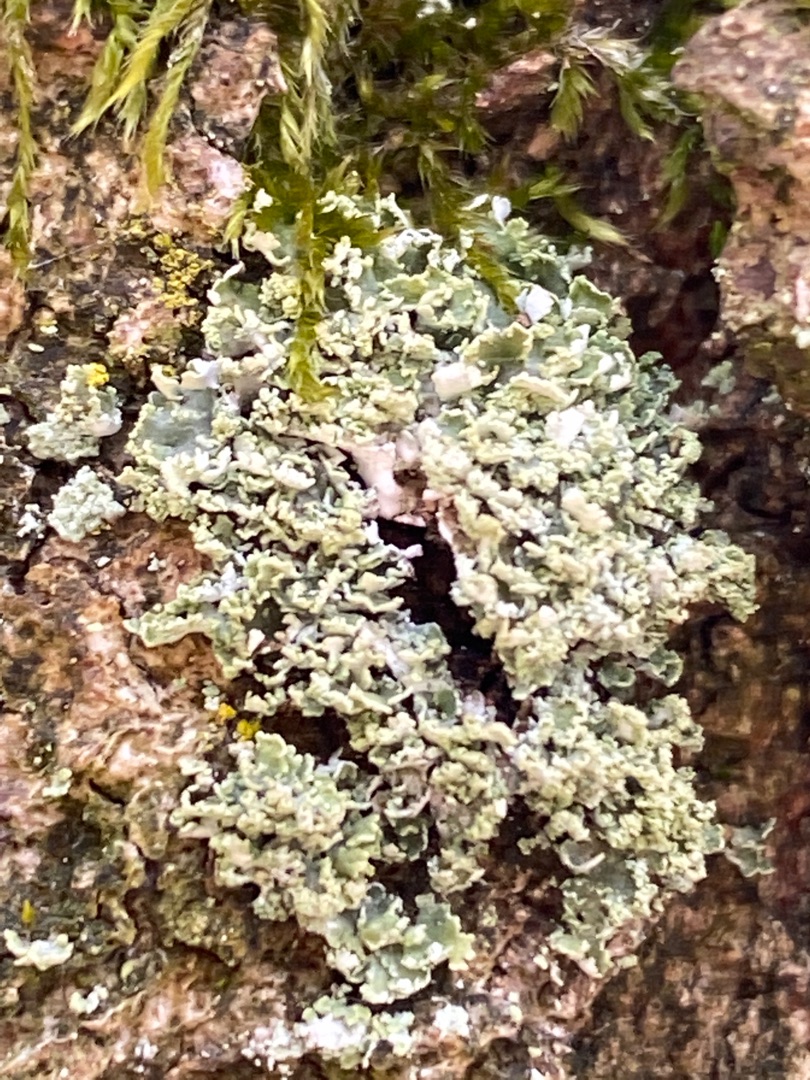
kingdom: Fungi
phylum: Ascomycota
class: Lecanoromycetes
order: Lecanorales
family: Cladoniaceae
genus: Cladonia
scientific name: Cladonia
